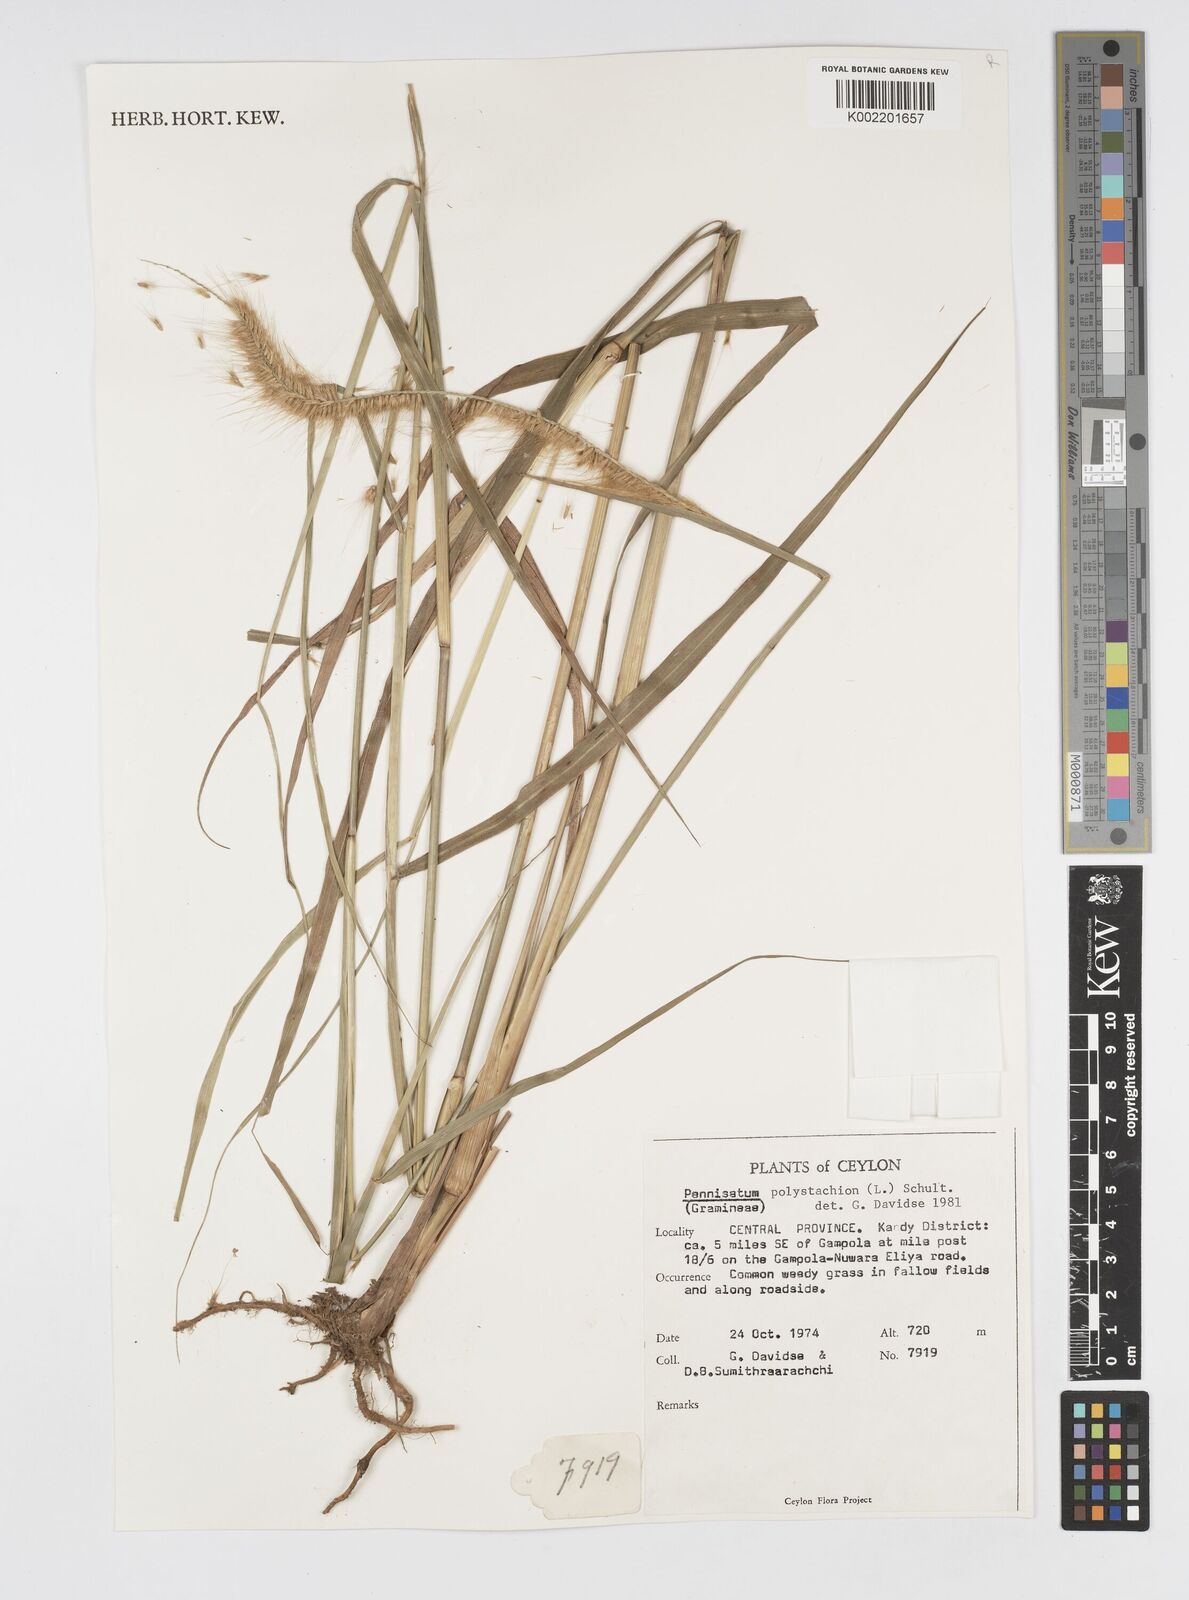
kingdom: Plantae
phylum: Tracheophyta
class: Liliopsida
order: Poales
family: Poaceae
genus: Setaria
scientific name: Setaria parviflora
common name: Knotroot bristle-grass
